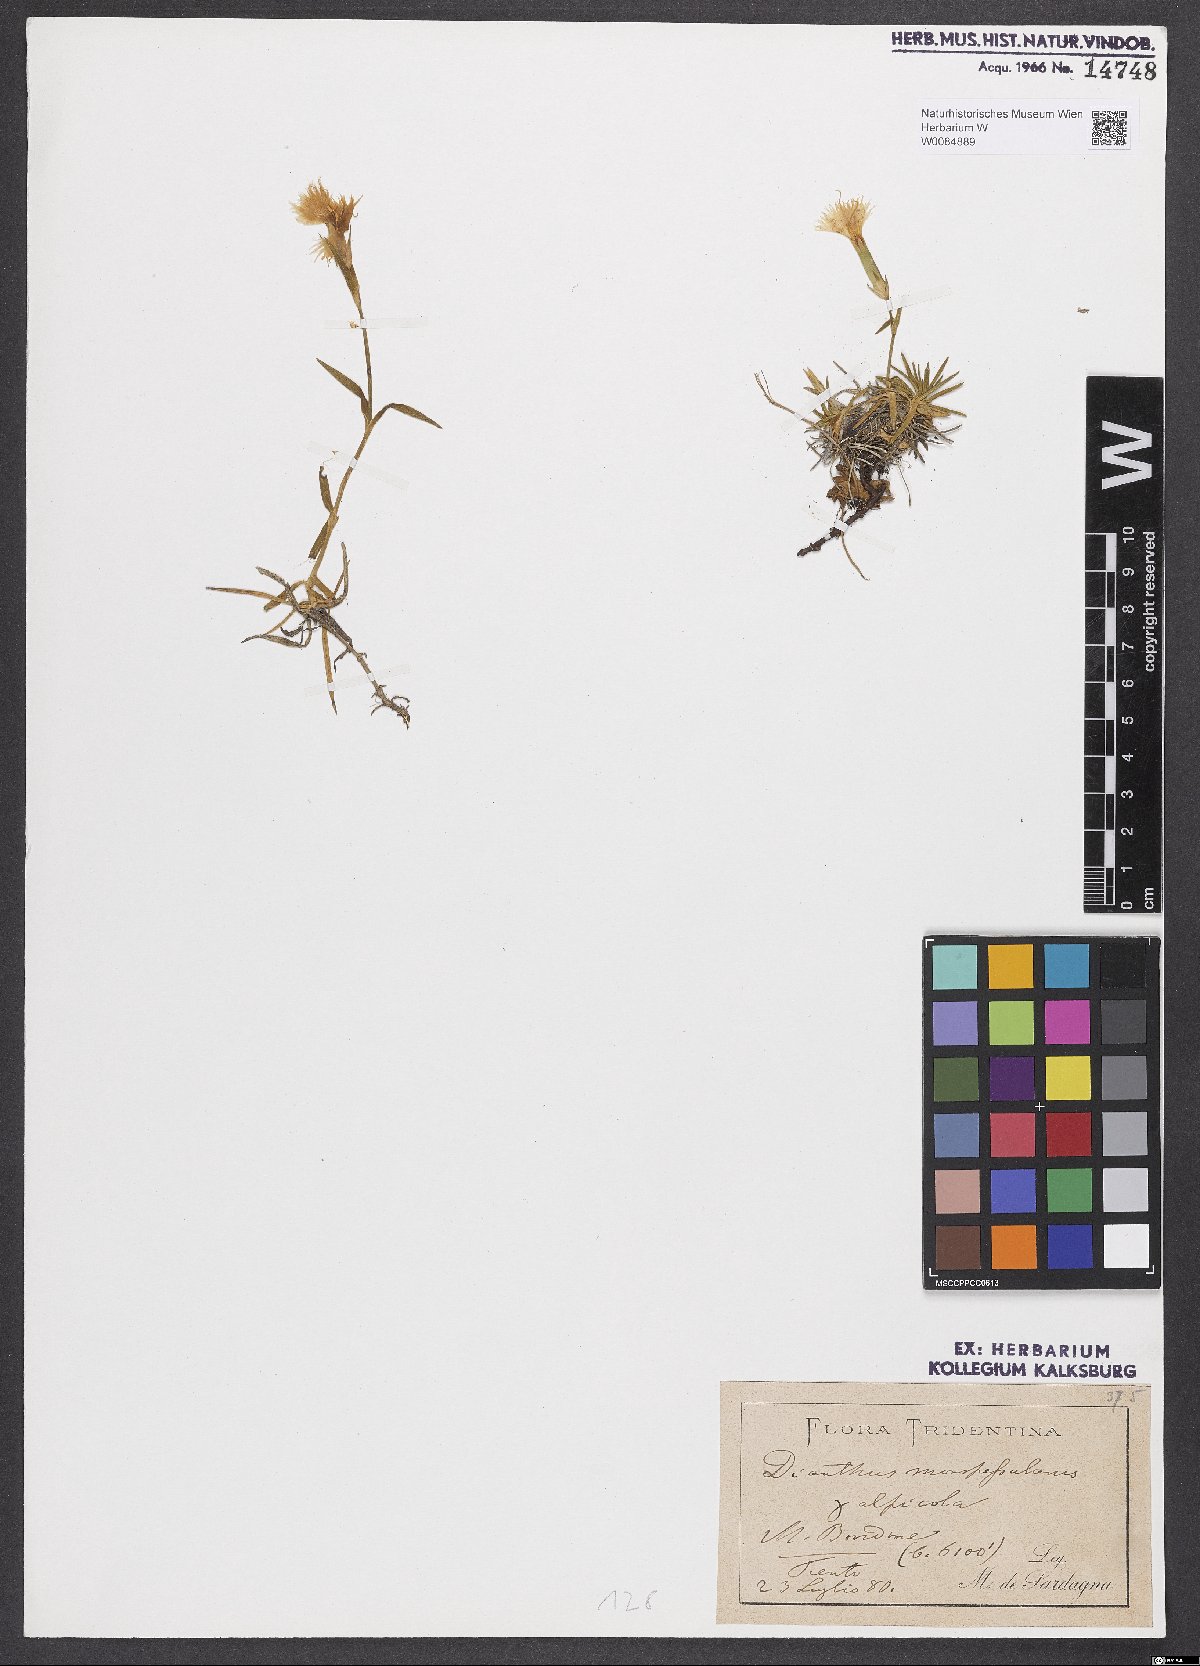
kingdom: Plantae
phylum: Tracheophyta
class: Magnoliopsida
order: Caryophyllales
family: Caryophyllaceae
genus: Dianthus
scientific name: Dianthus hyssopifolius
